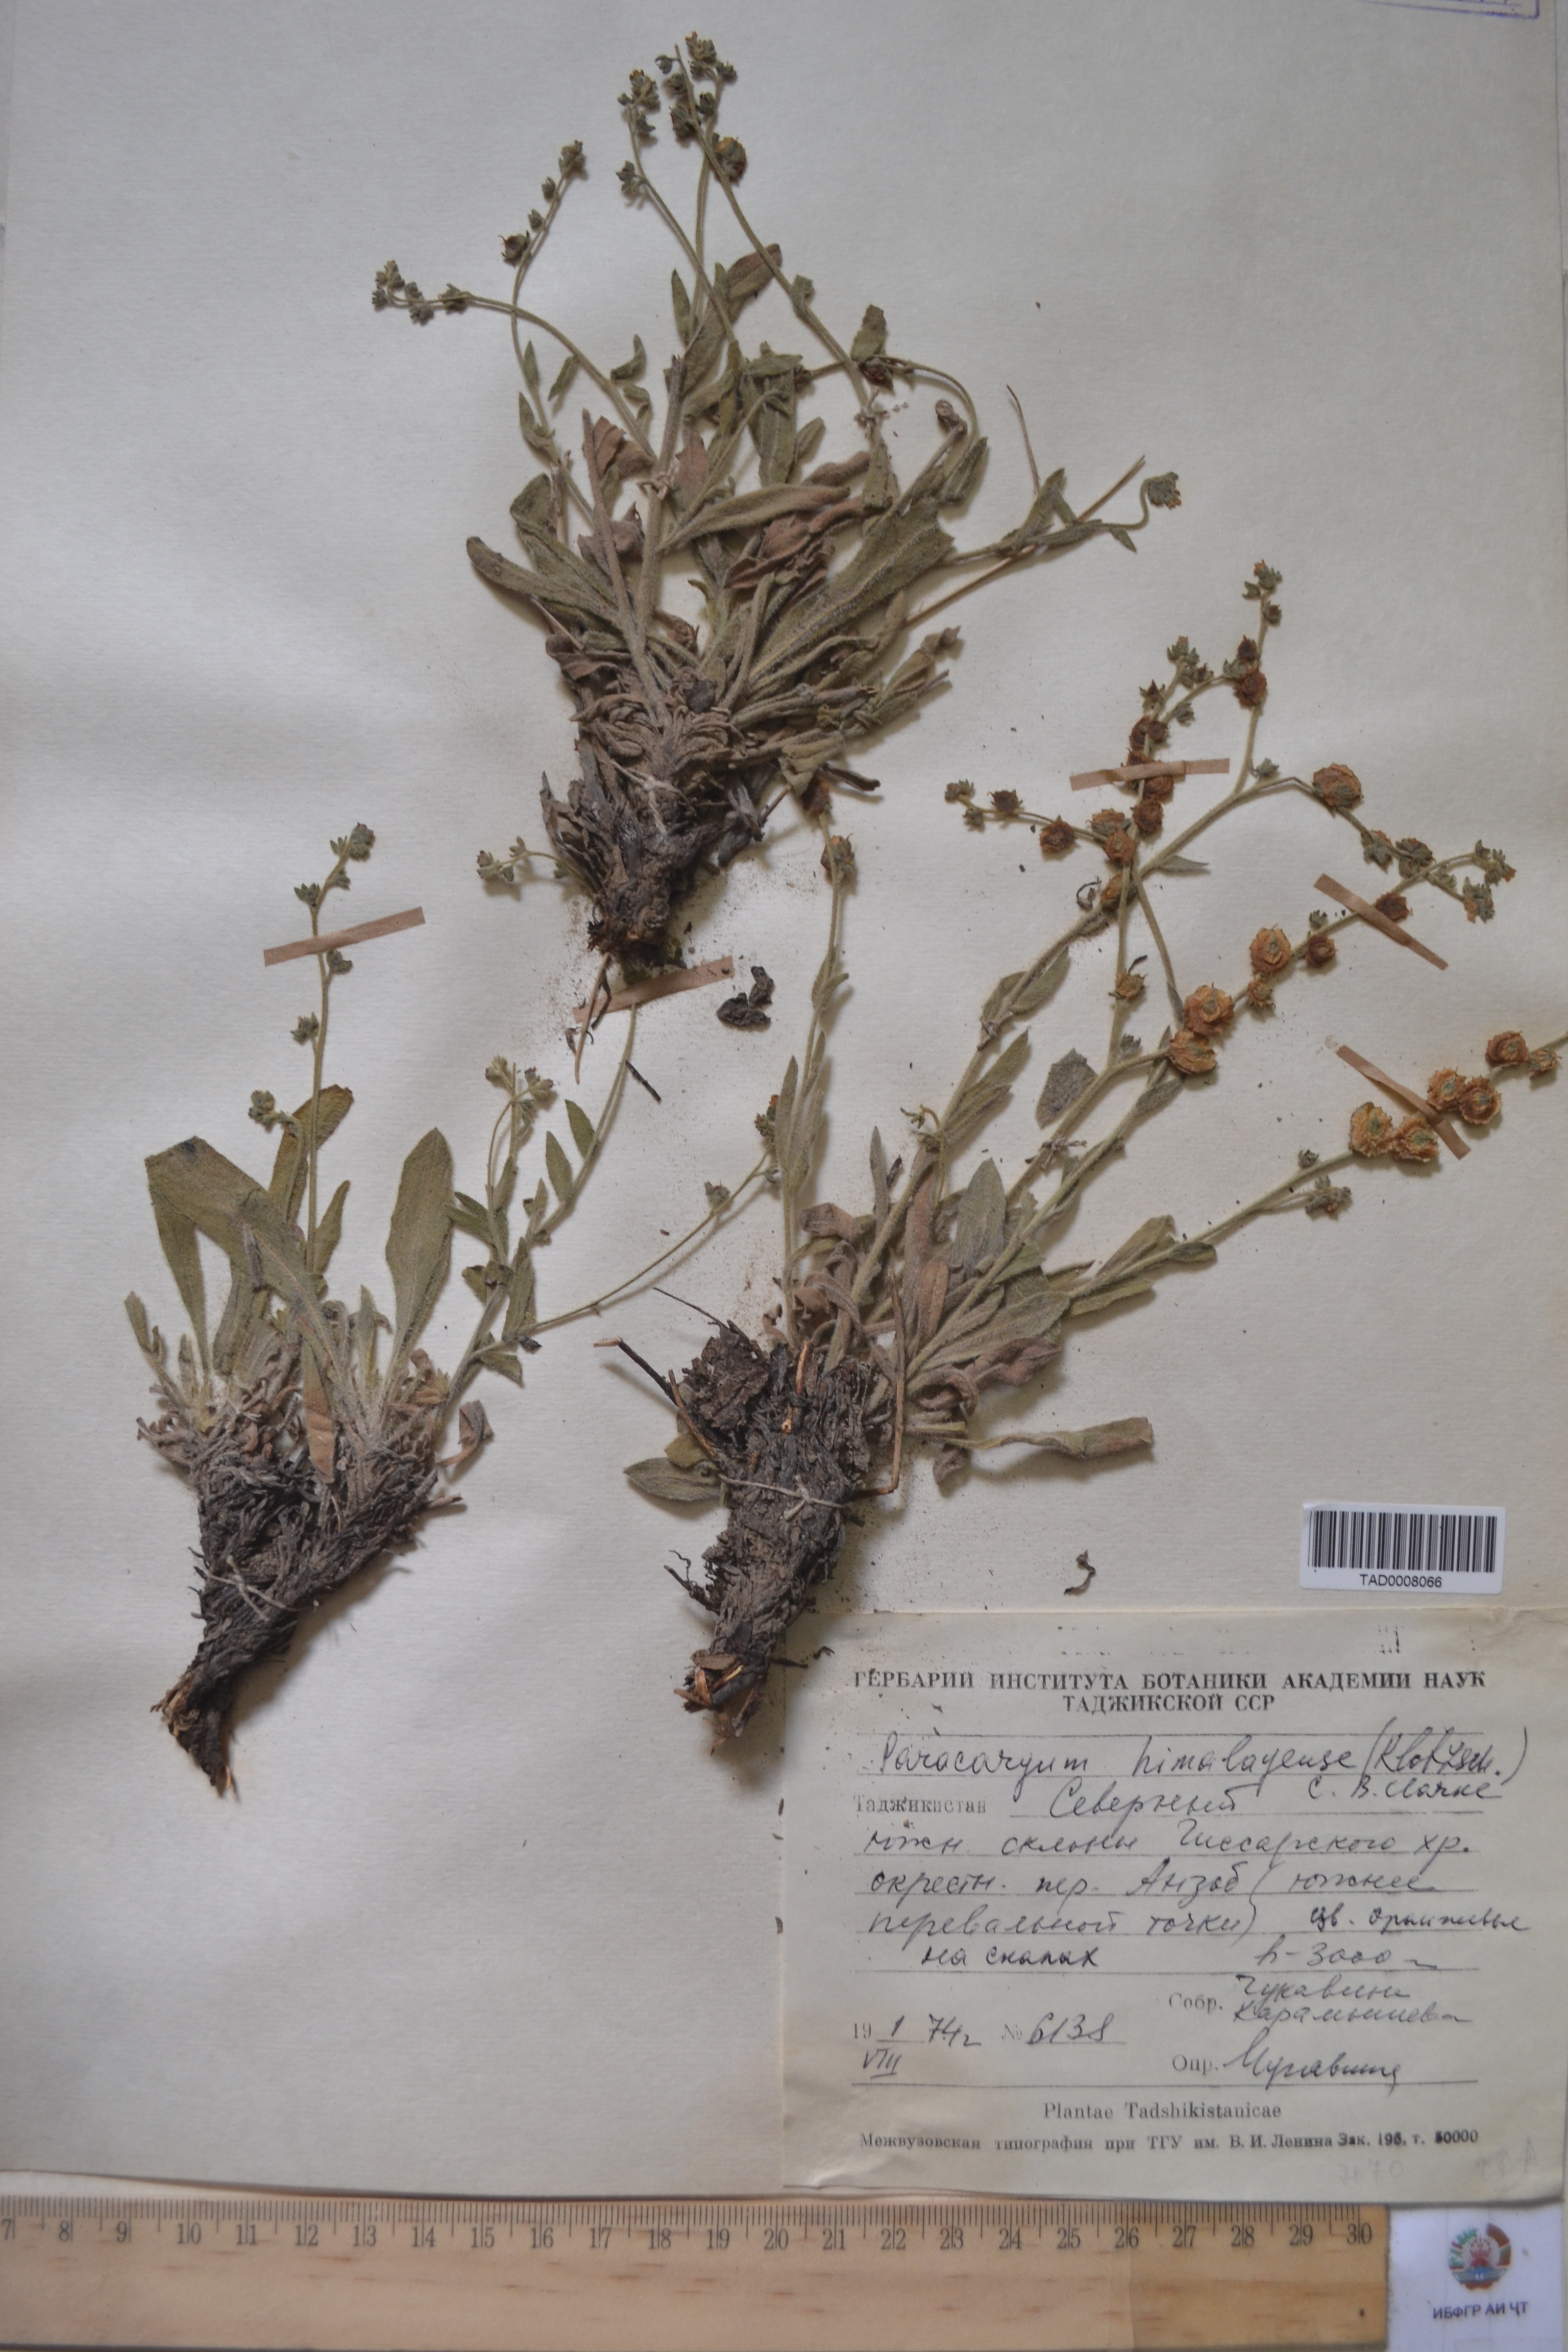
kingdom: Plantae
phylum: Tracheophyta
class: Magnoliopsida
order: Boraginales
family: Boraginaceae
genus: Paracaryum
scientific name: Paracaryum himalayense
